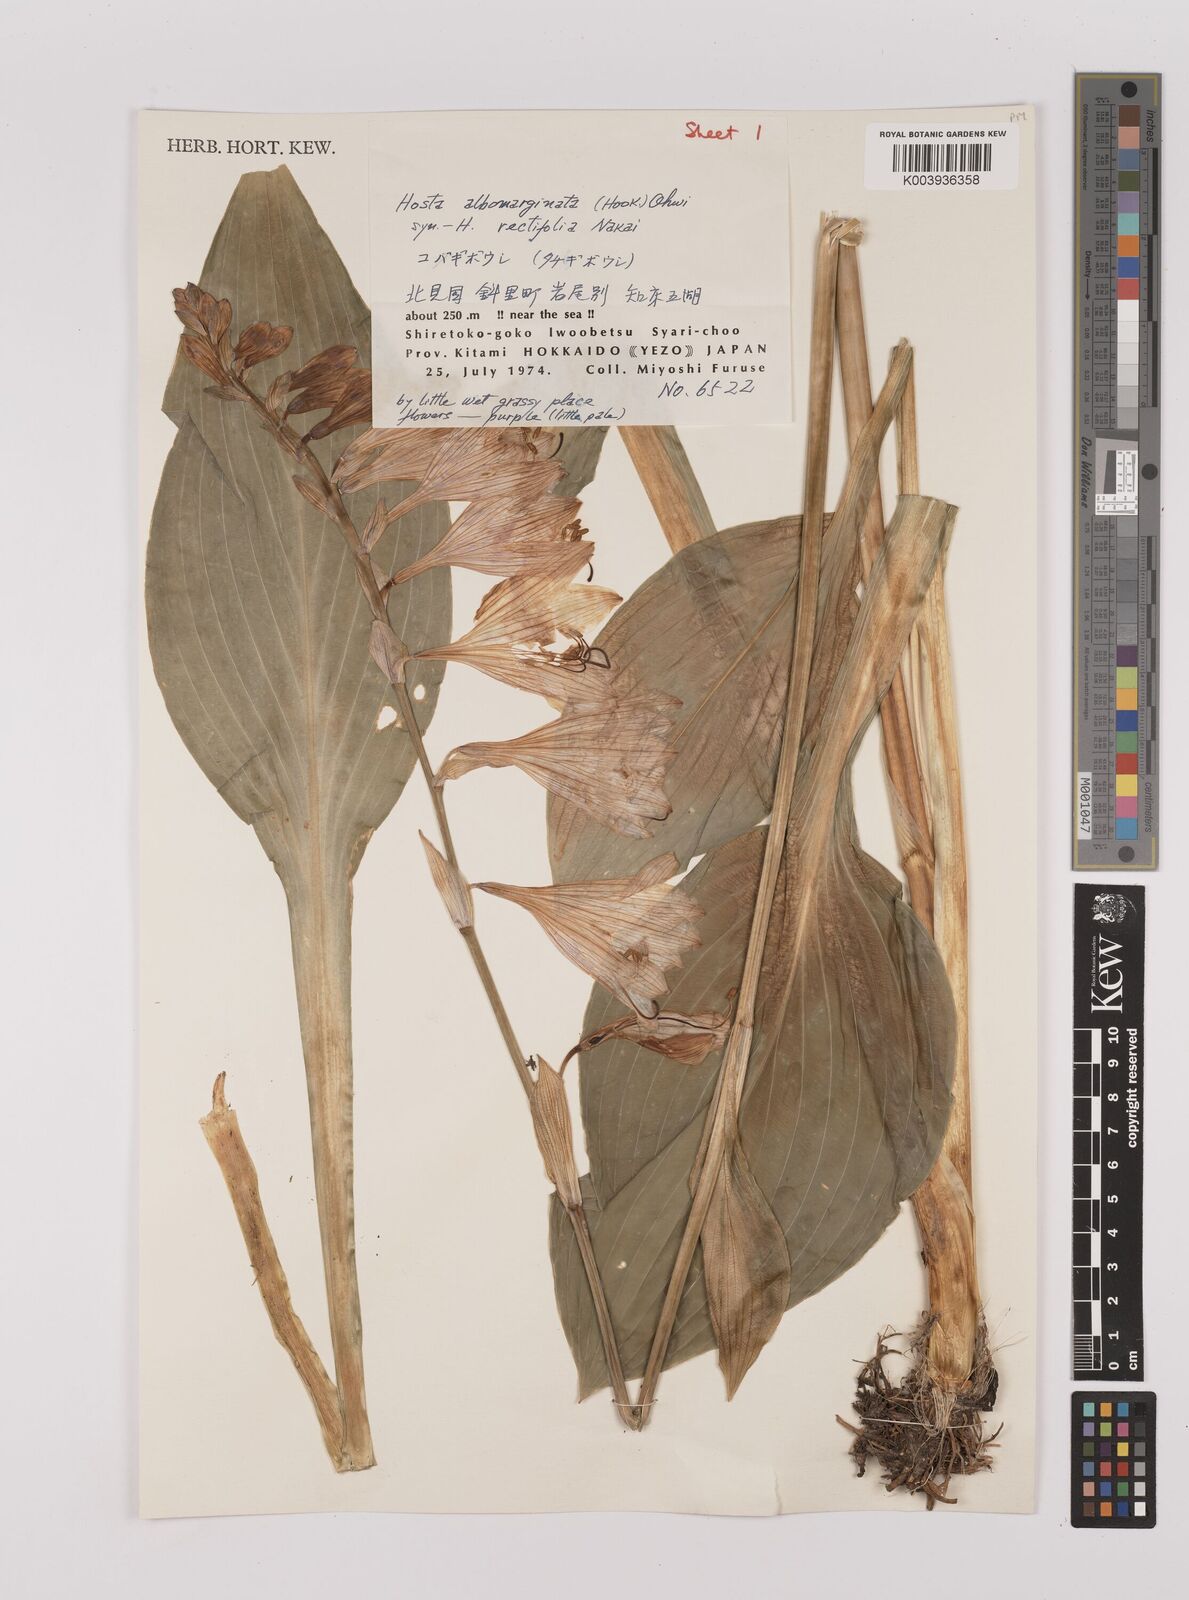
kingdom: Plantae
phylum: Tracheophyta
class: Liliopsida
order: Asparagales
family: Asparagaceae
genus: Hosta
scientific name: Hosta sieboldii
